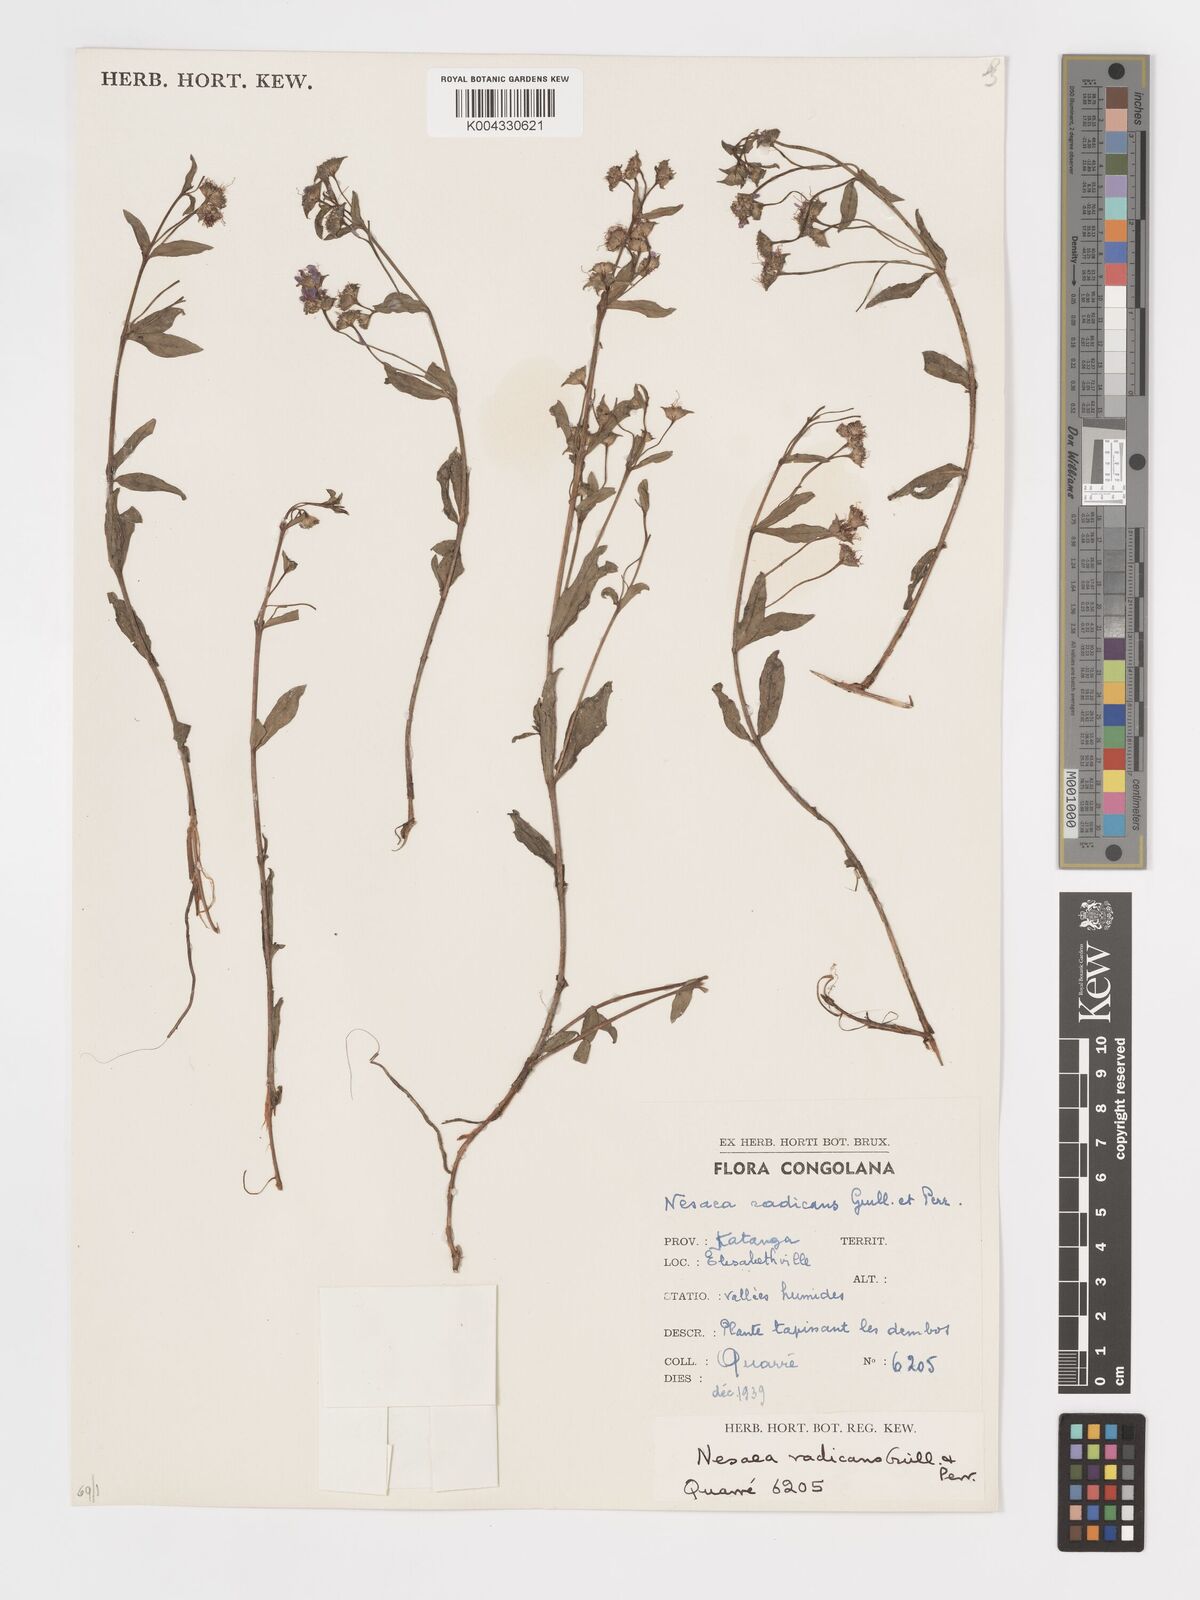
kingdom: Plantae
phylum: Tracheophyta
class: Magnoliopsida
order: Myrtales
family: Lythraceae
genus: Ammannia
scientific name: Ammannia radicans
